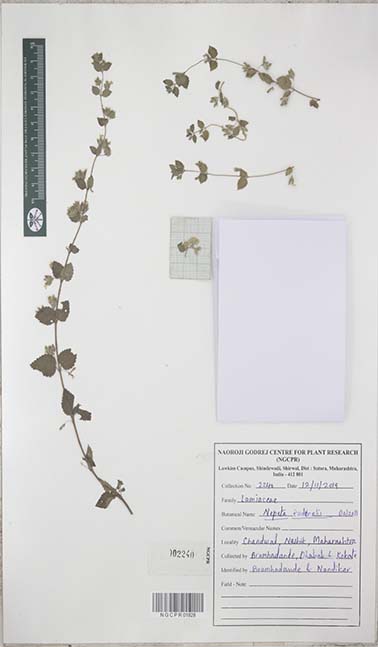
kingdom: Plantae
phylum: Tracheophyta
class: Magnoliopsida
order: Lamiales
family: Lamiaceae
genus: Nepeta
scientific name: Nepeta ruderalis
